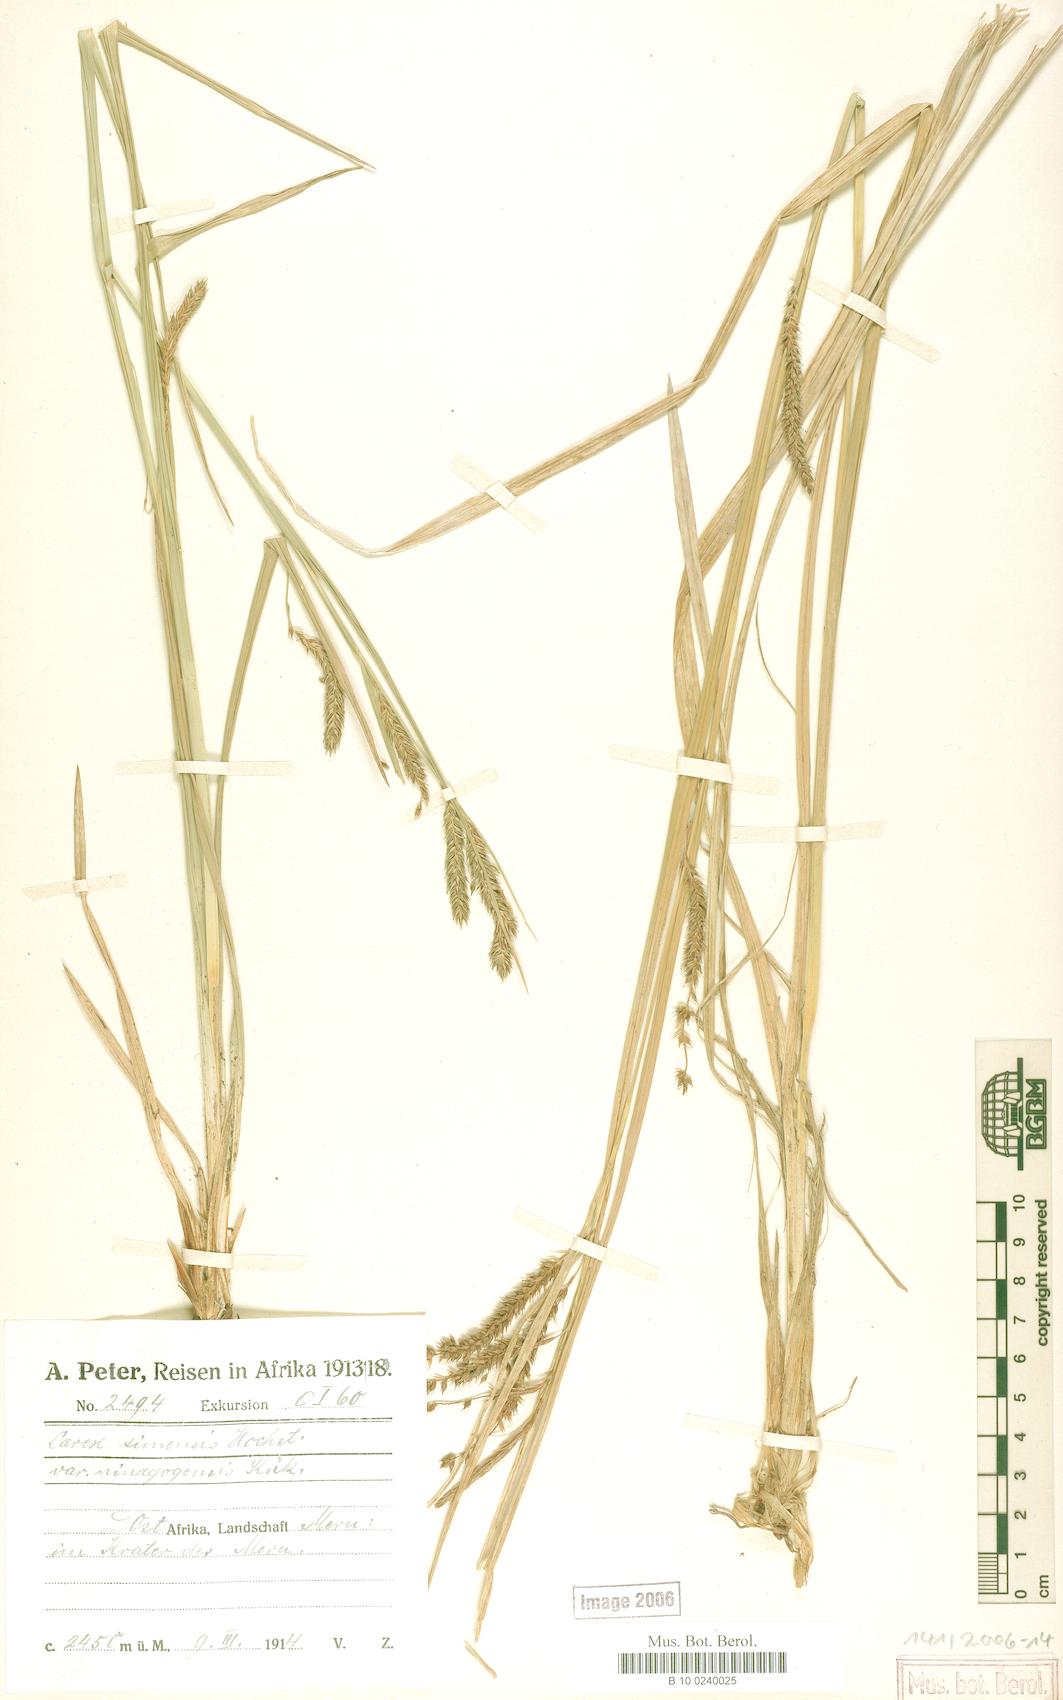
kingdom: Plantae
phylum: Tracheophyta
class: Liliopsida
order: Poales
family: Cyperaceae
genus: Carex
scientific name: Carex fischeri
